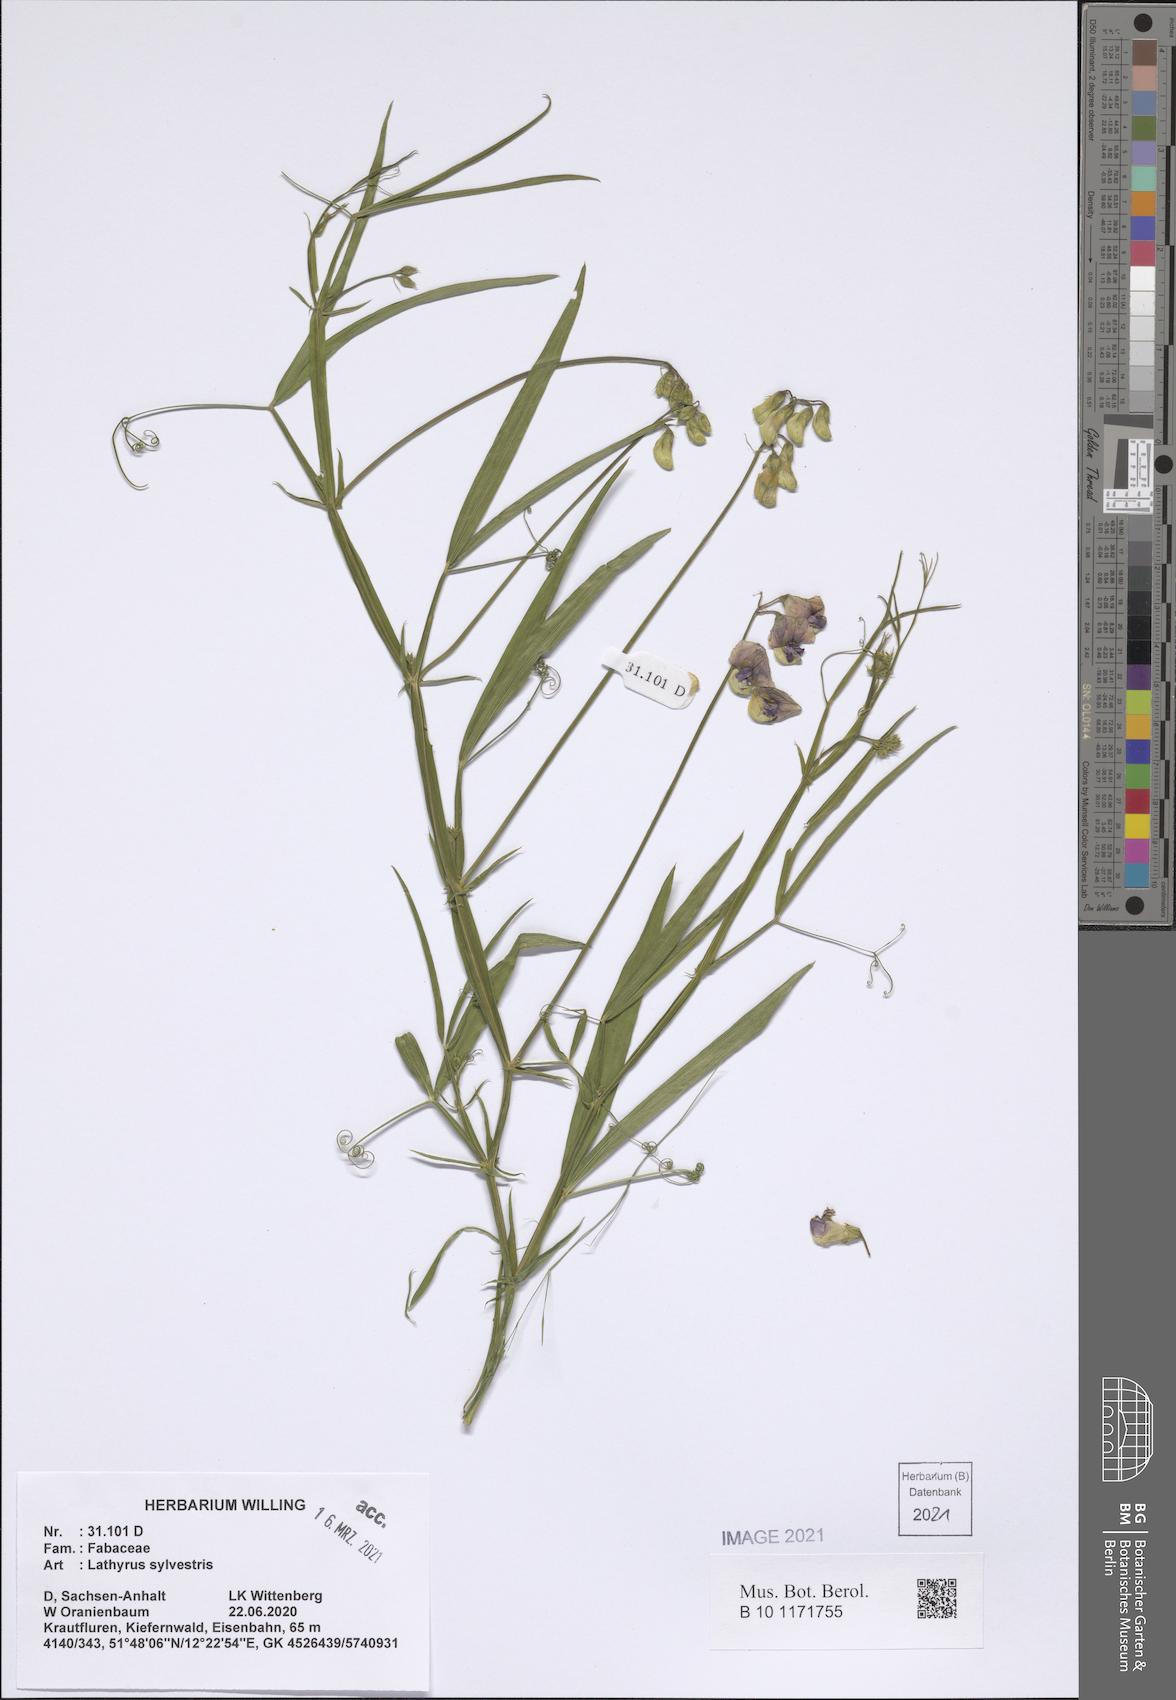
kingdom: Plantae
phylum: Tracheophyta
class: Magnoliopsida
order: Fabales
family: Fabaceae
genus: Lathyrus
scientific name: Lathyrus sylvestris
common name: Flat pea
